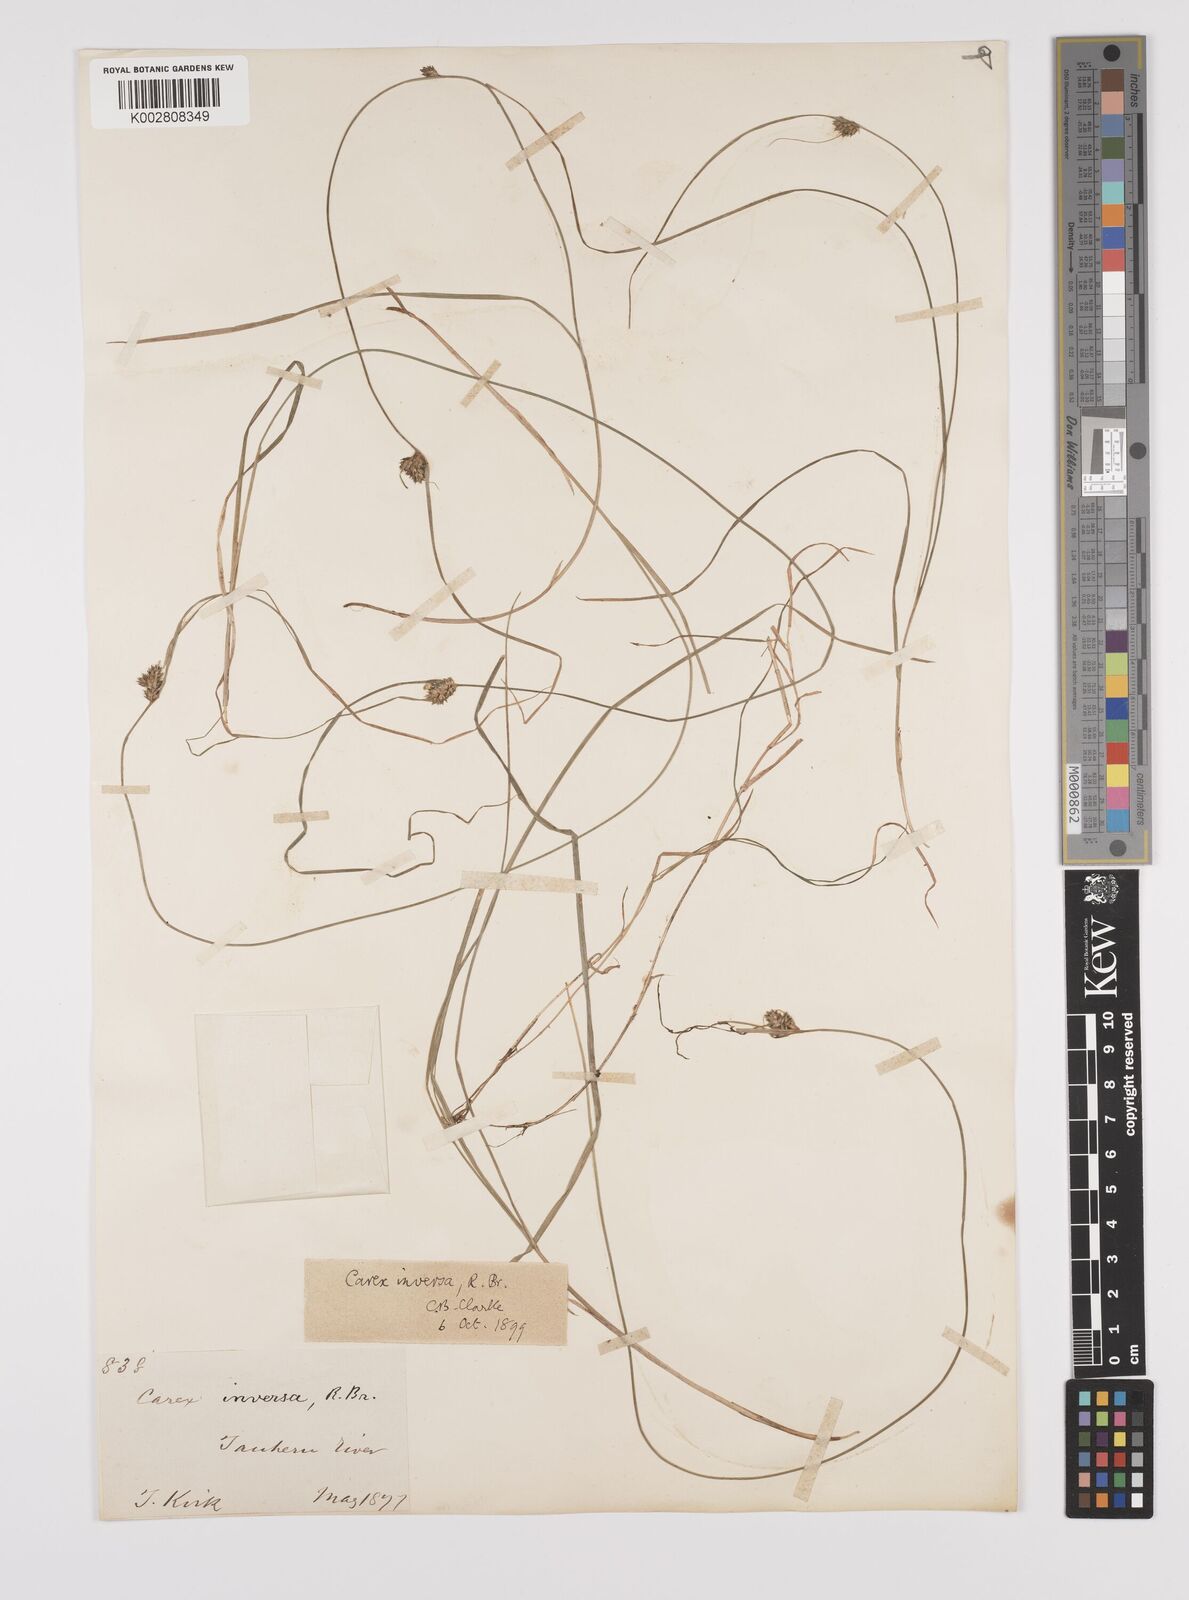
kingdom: Plantae
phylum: Tracheophyta
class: Liliopsida
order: Poales
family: Cyperaceae
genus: Carex
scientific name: Carex inversa
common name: Knob sedge
